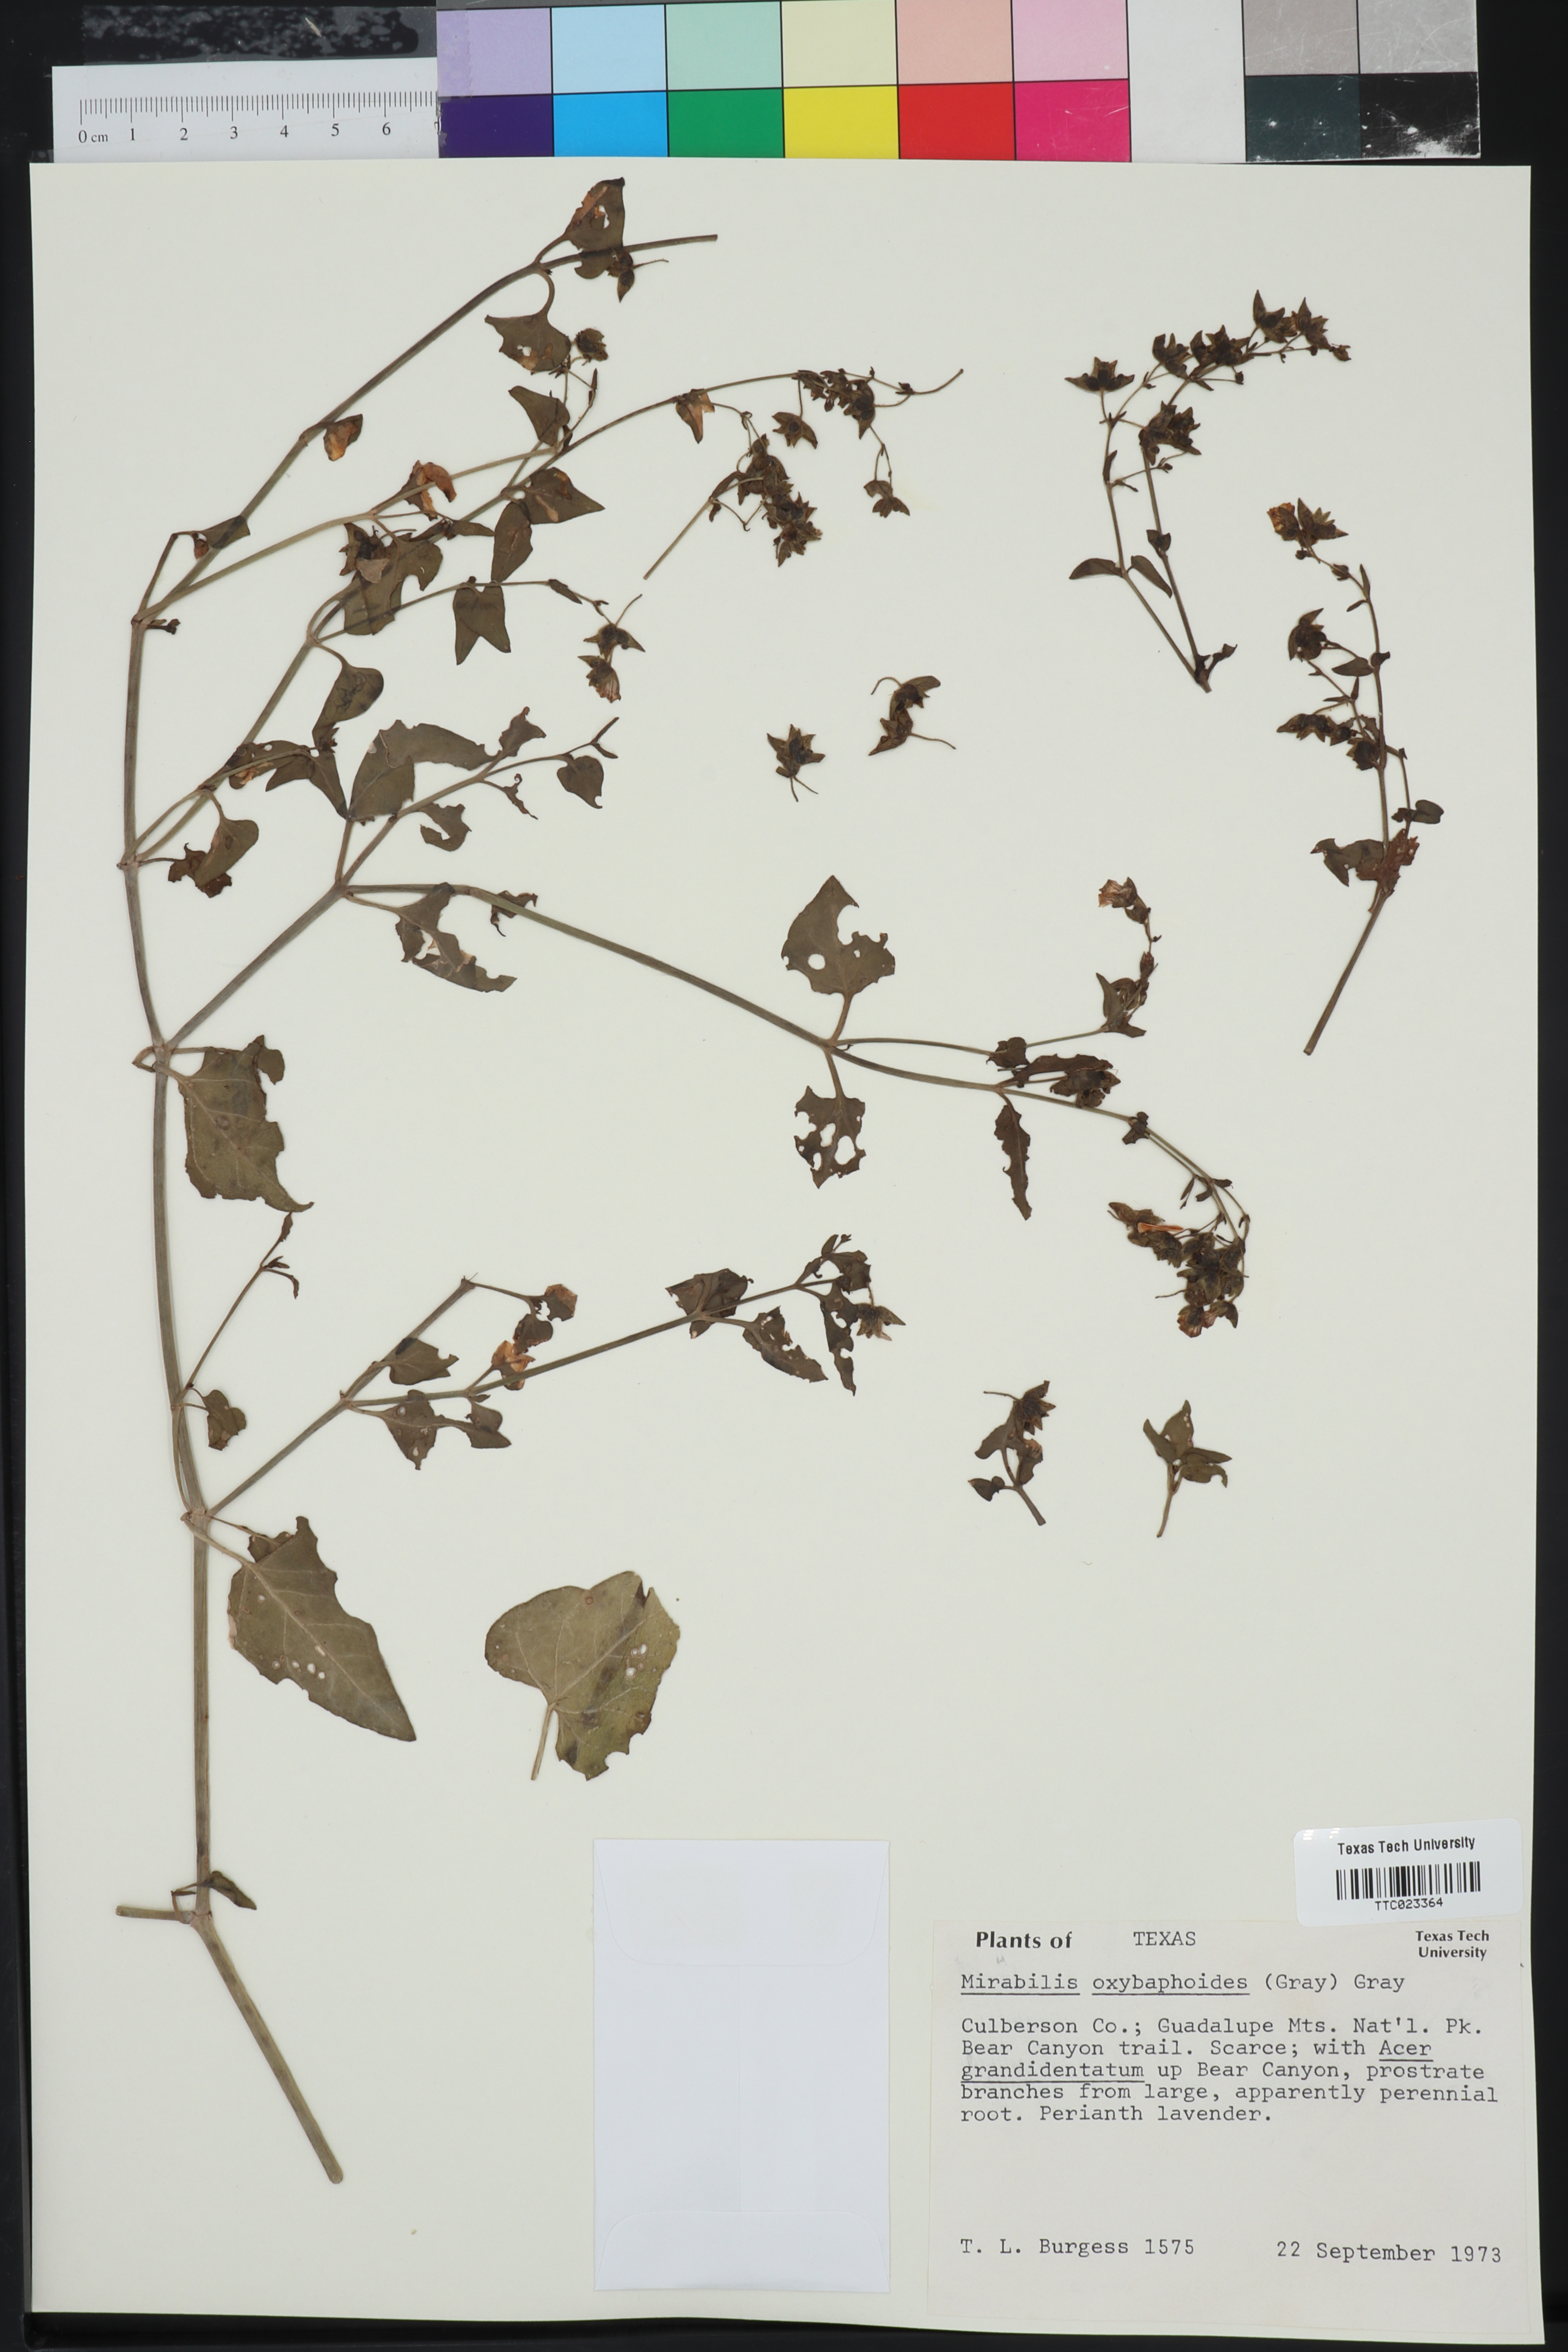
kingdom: Plantae
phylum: Tracheophyta
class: Magnoliopsida
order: Caryophyllales
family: Nyctaginaceae
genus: Mirabilis
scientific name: Mirabilis oxybaphoides
